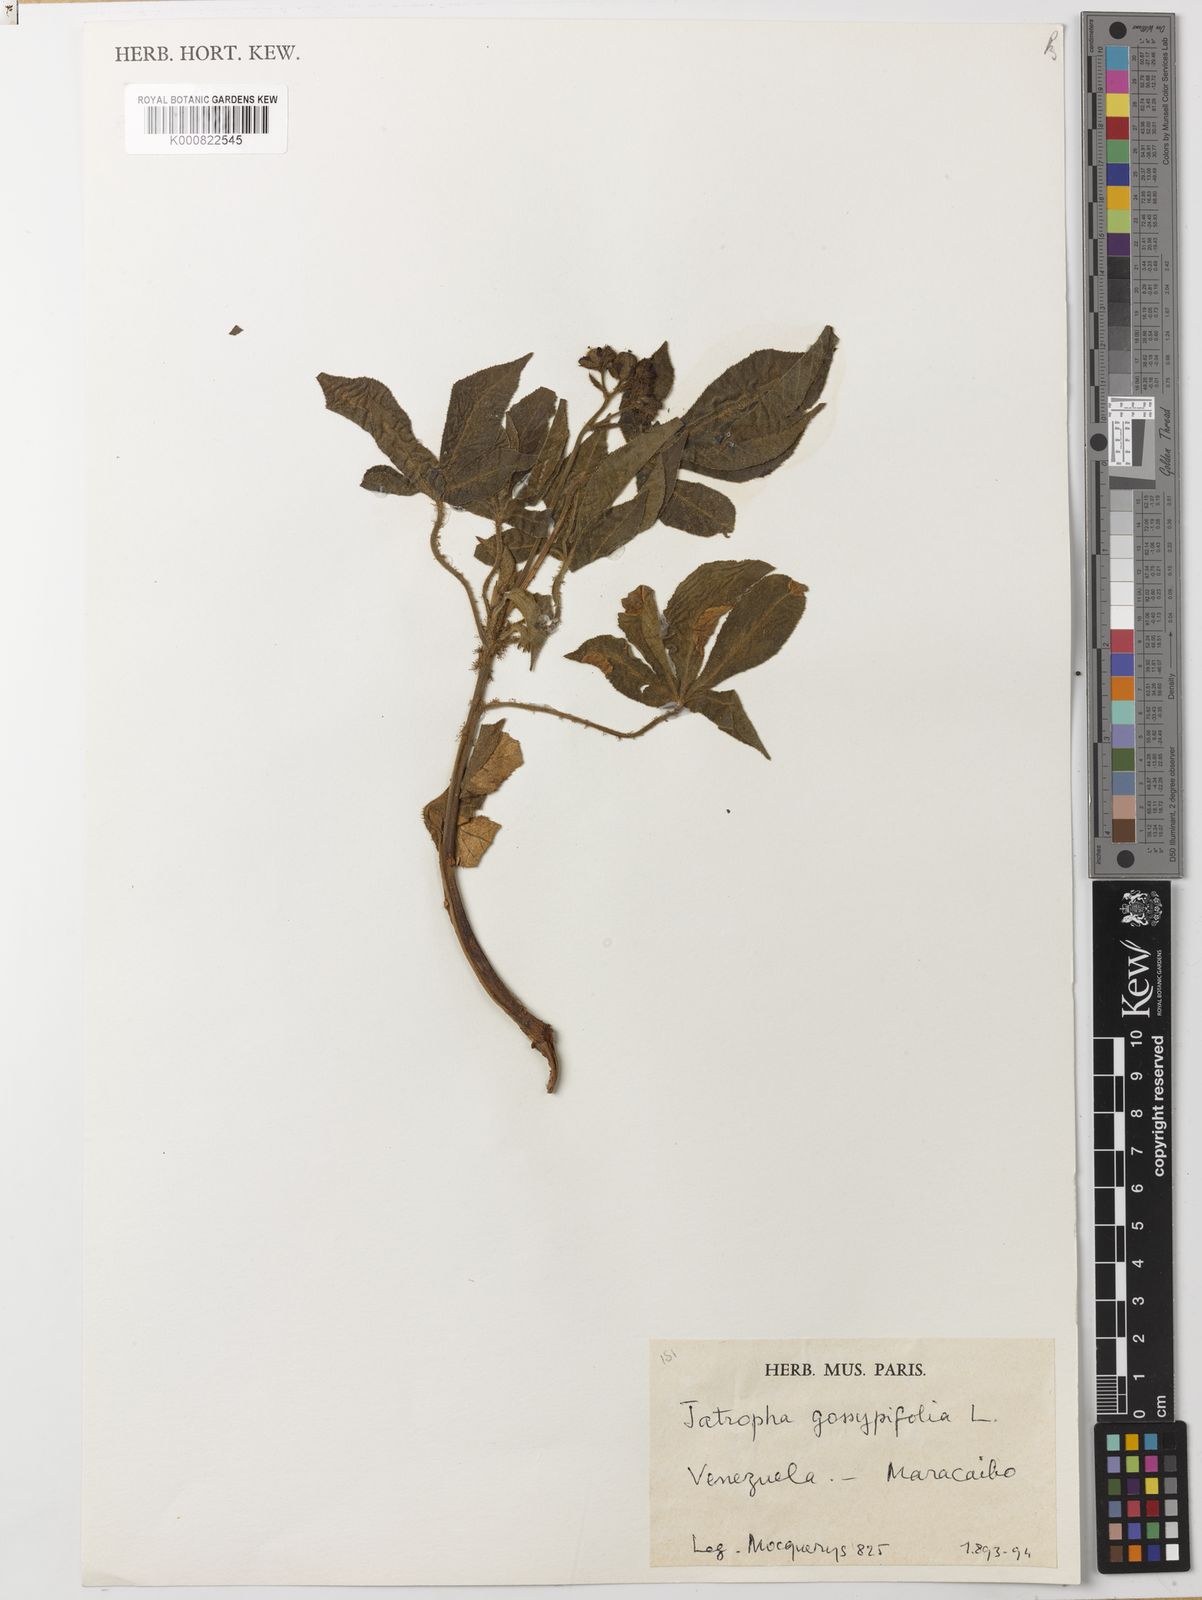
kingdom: Plantae
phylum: Tracheophyta
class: Magnoliopsida
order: Malpighiales
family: Euphorbiaceae
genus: Jatropha
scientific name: Jatropha gossypiifolia
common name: Bellyache bush
